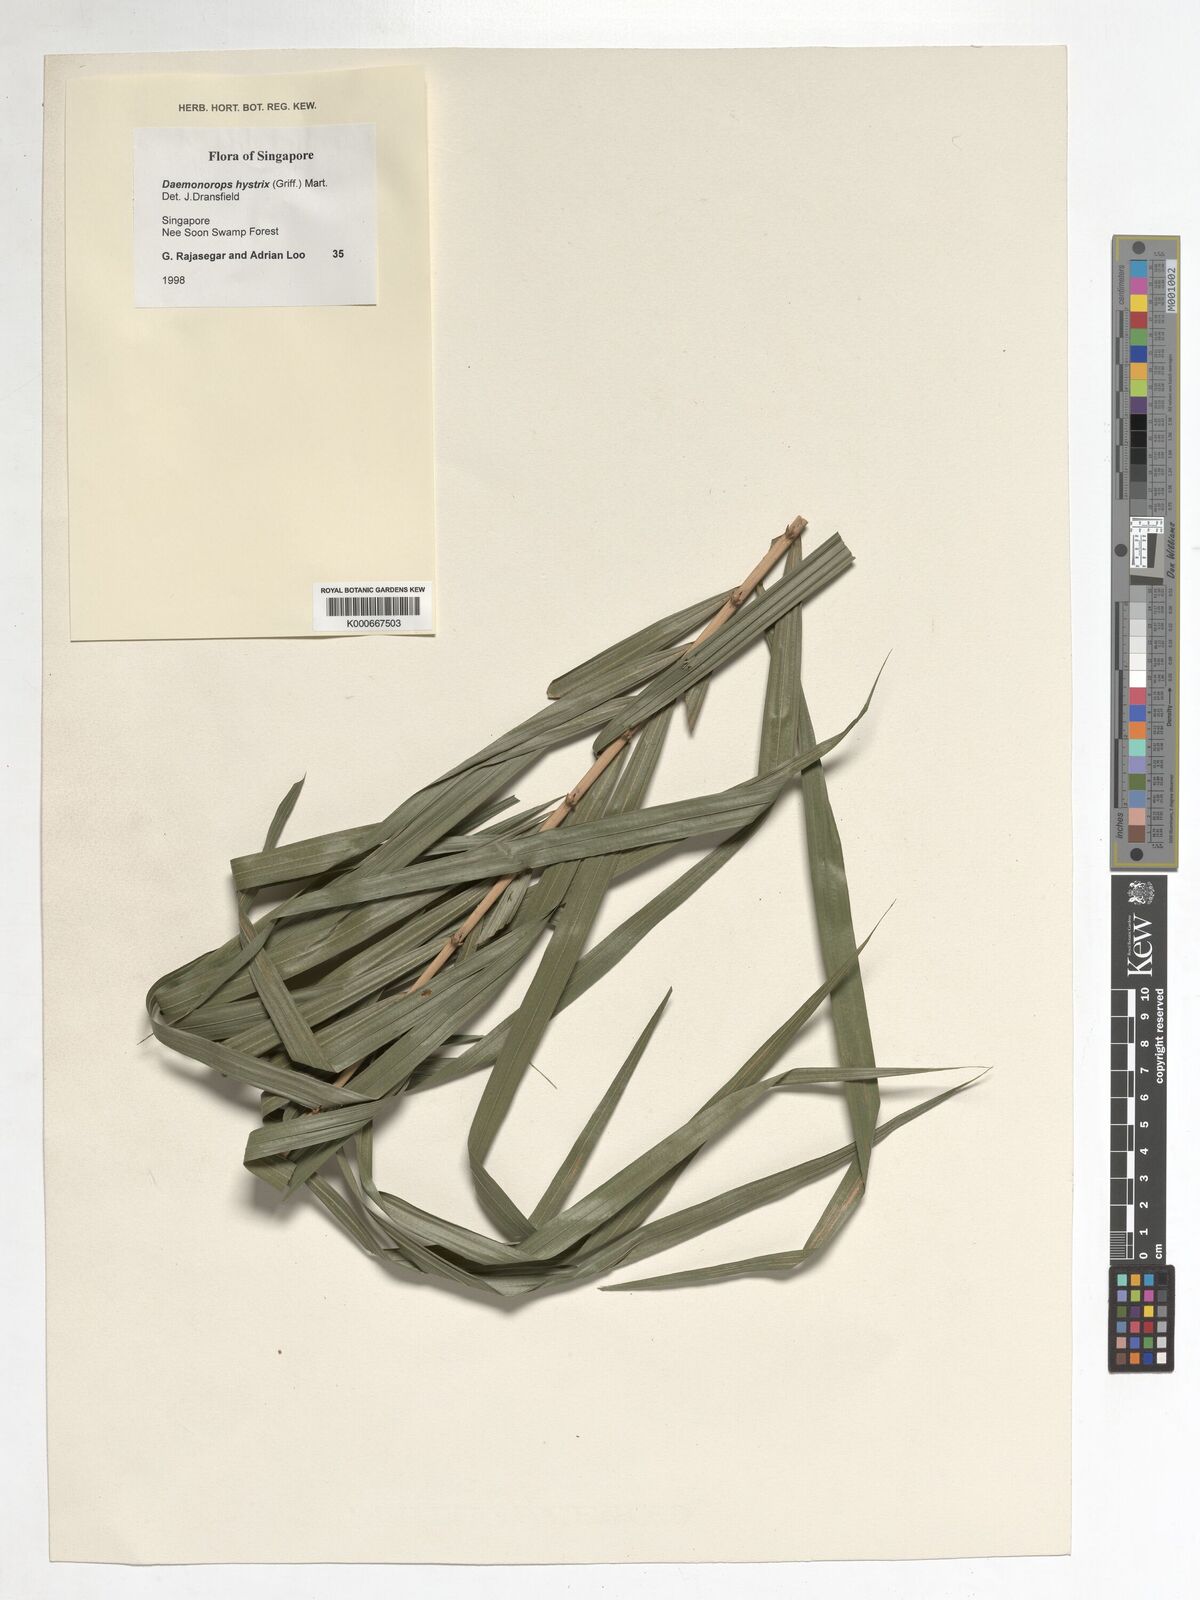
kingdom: Plantae
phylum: Tracheophyta
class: Liliopsida
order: Arecales
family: Arecaceae
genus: Calamus
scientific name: Calamus hirsutus
